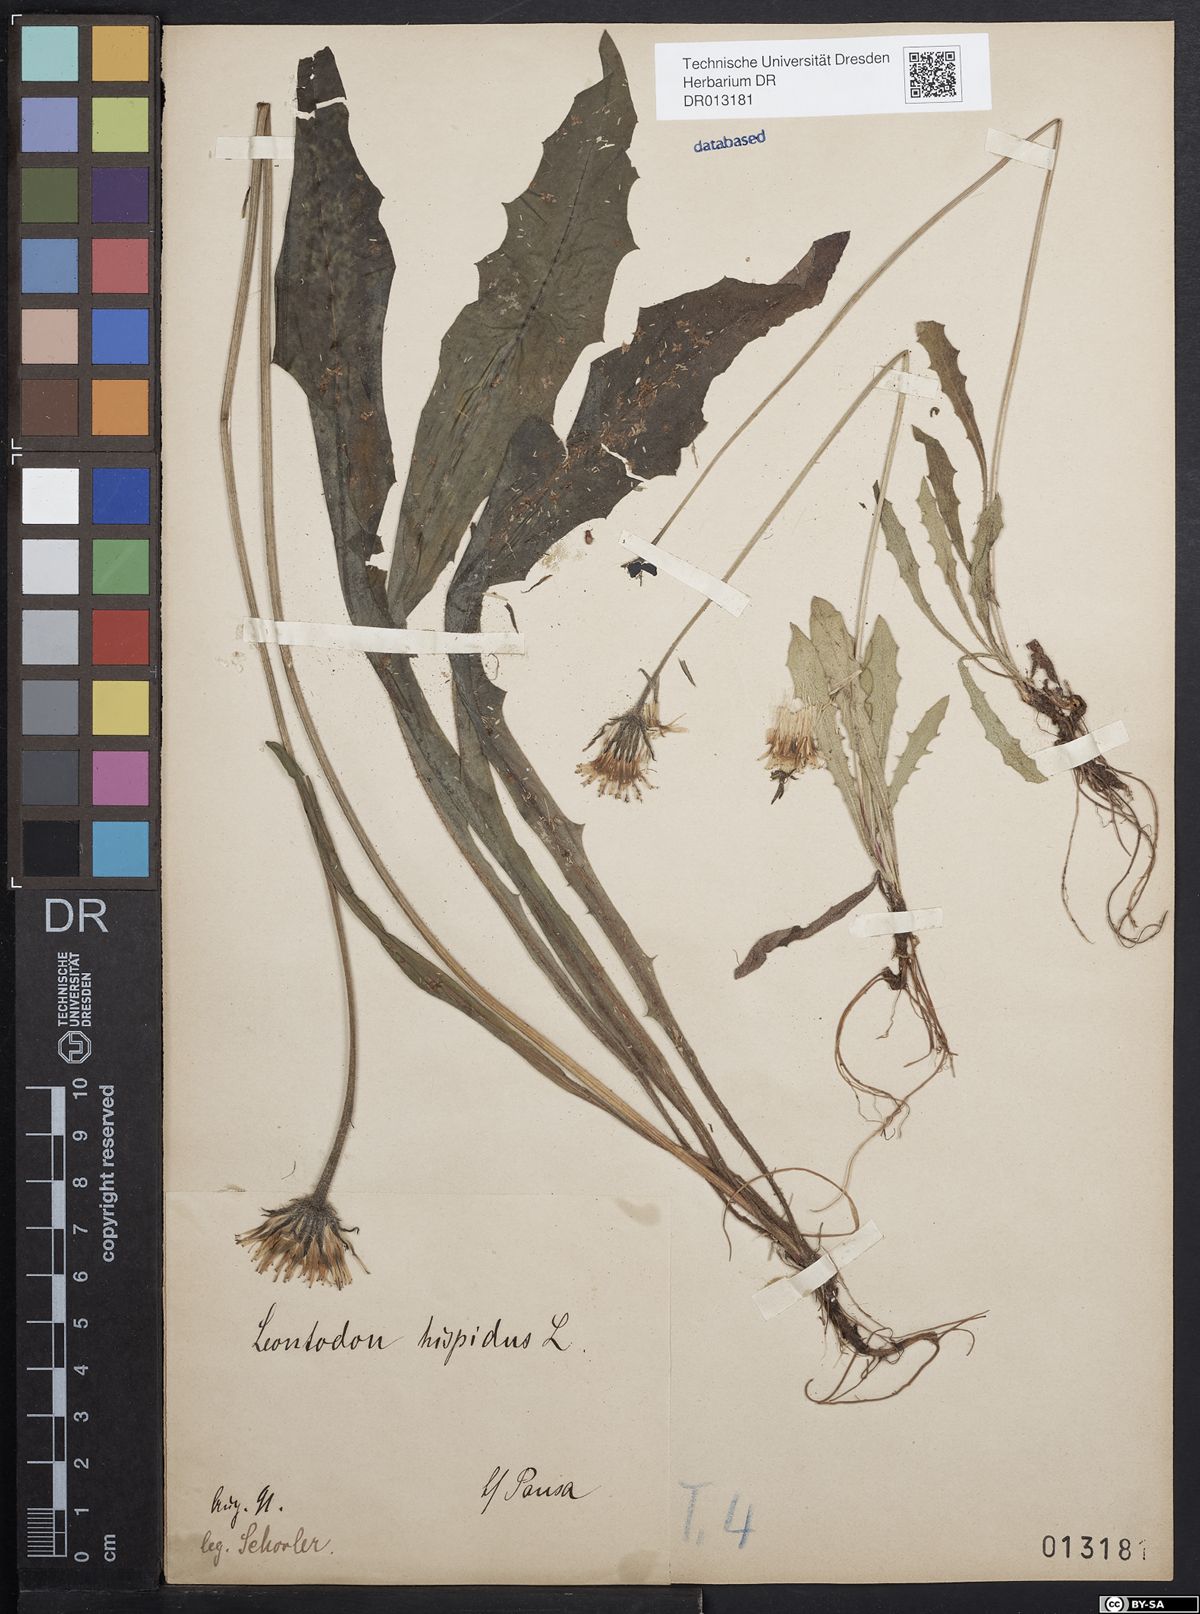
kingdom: Plantae
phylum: Tracheophyta
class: Magnoliopsida
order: Asterales
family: Asteraceae
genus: Leontodon
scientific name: Leontodon hispidus
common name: Rough hawkbit
